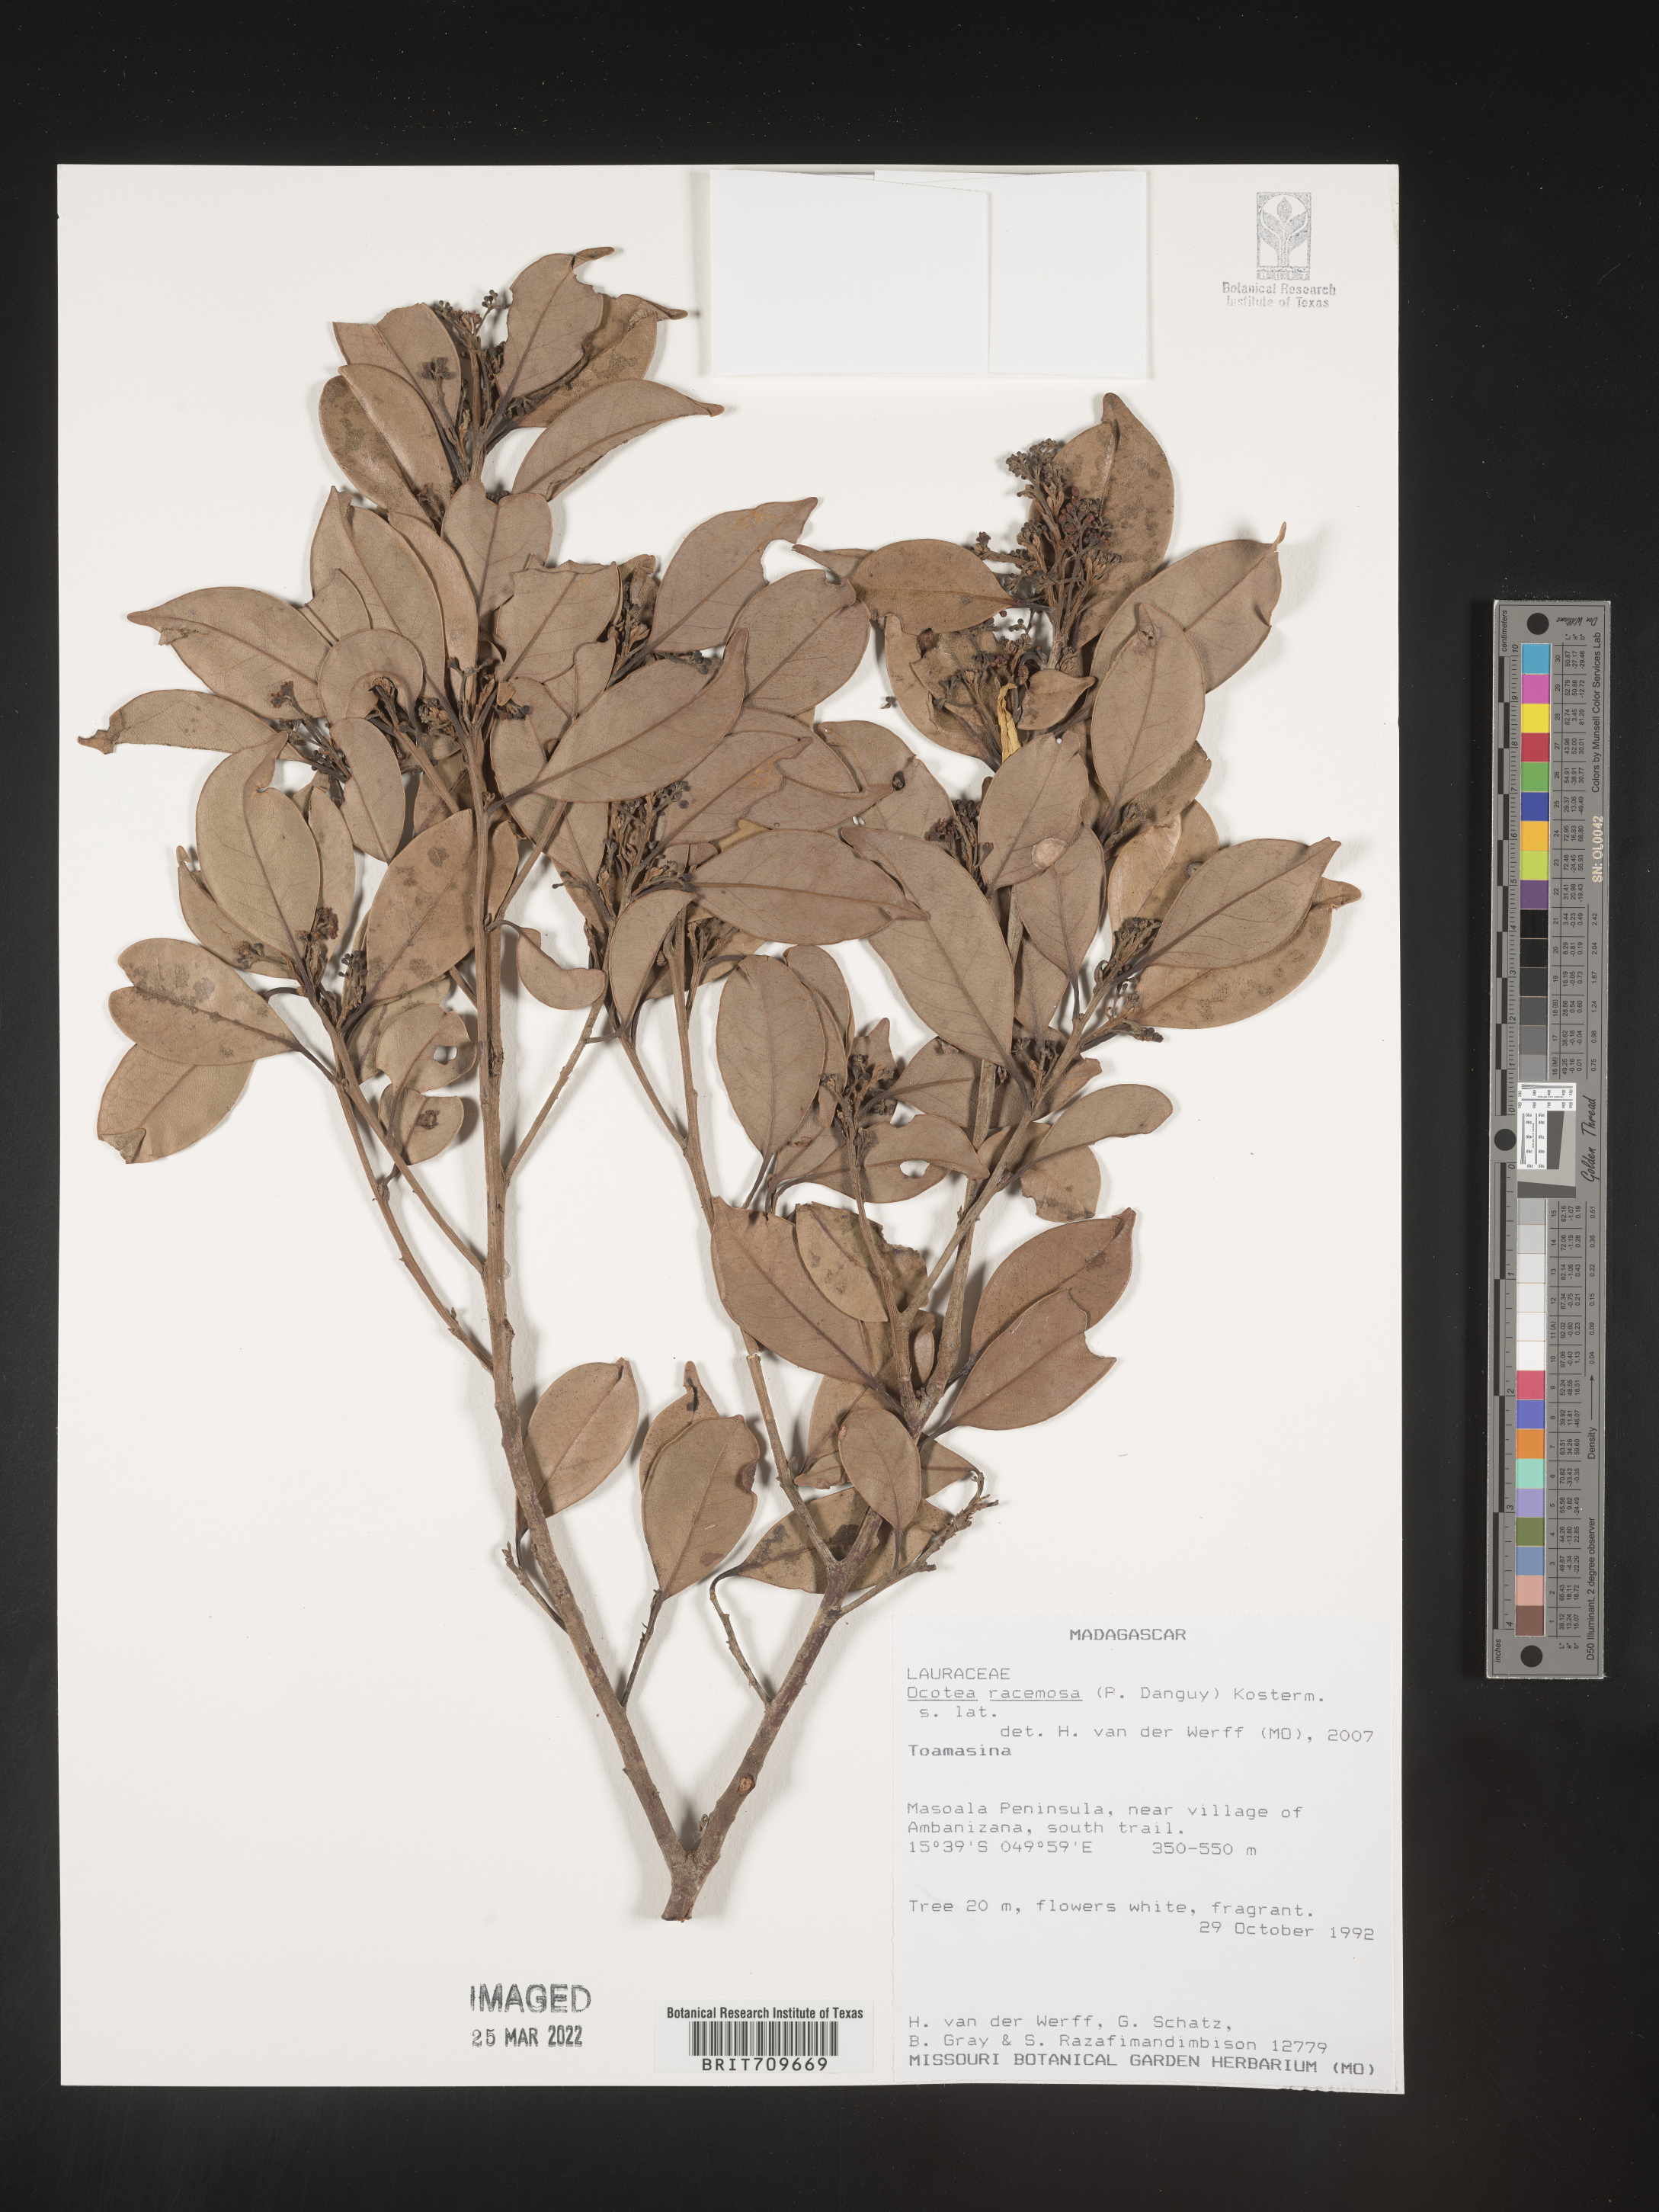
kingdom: Plantae
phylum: Tracheophyta
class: Magnoliopsida
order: Laurales
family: Lauraceae
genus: Ocotea
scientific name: Ocotea
